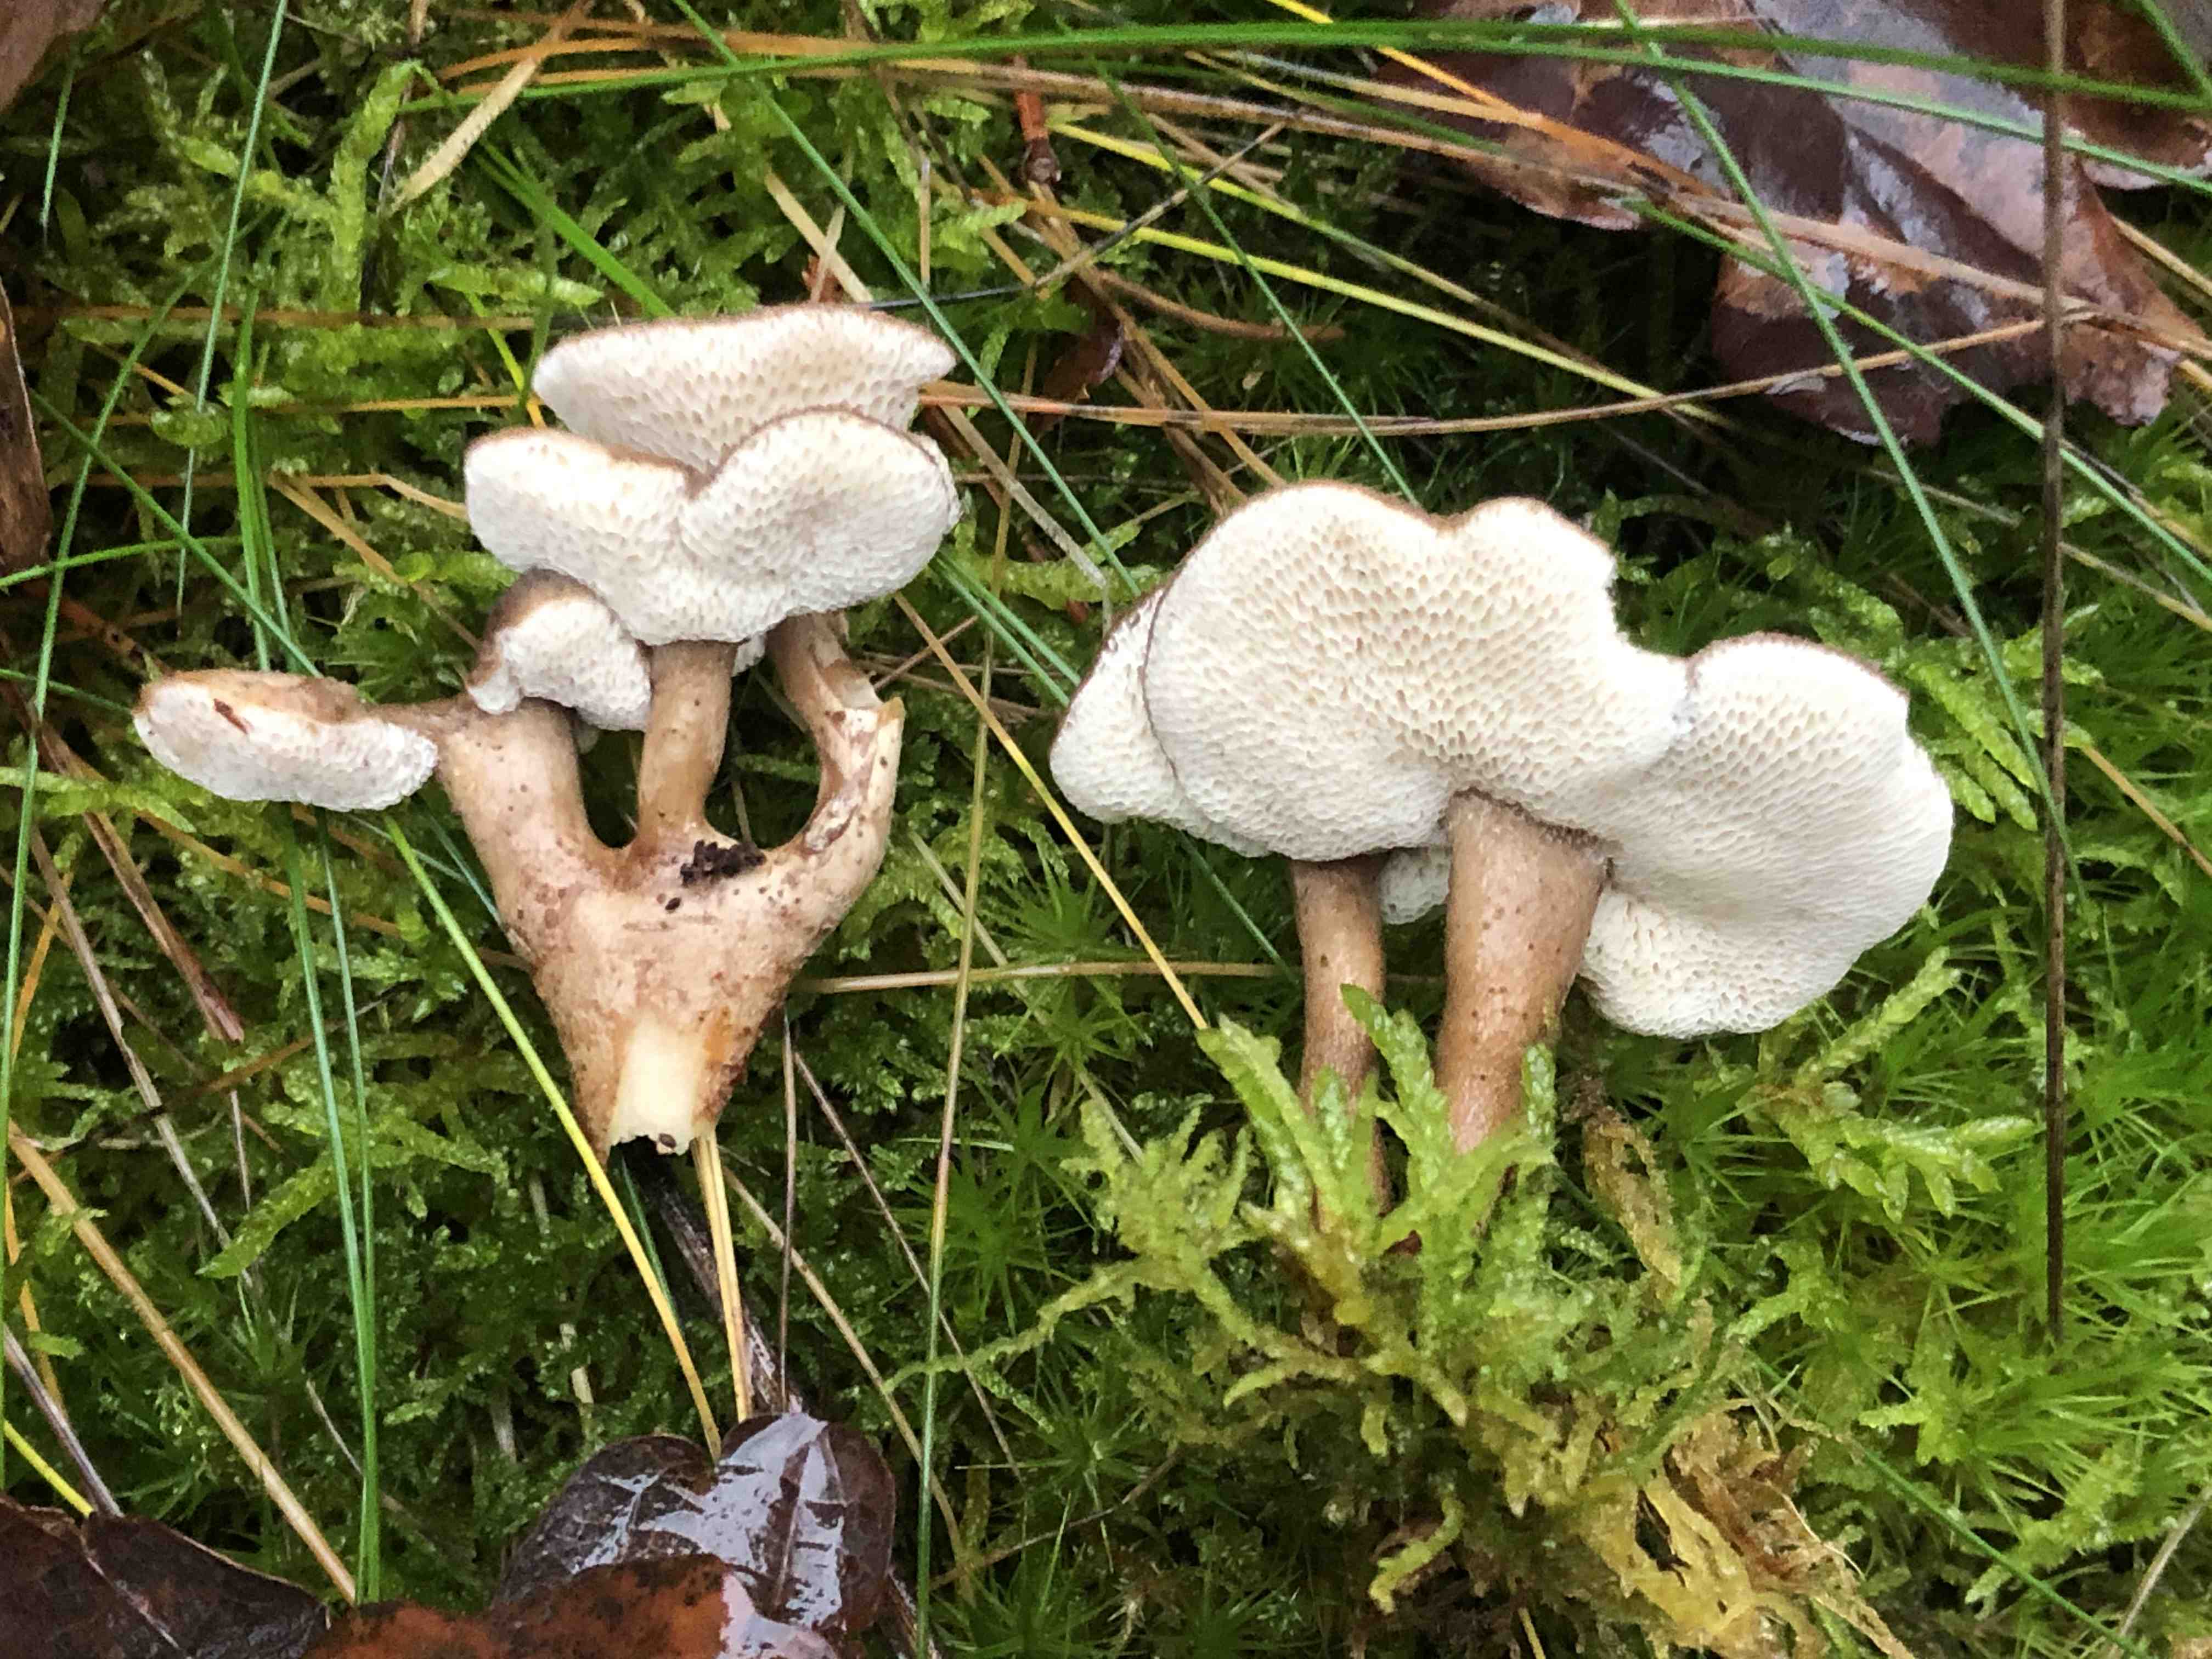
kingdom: Fungi
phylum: Basidiomycota
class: Agaricomycetes
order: Polyporales
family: Polyporaceae
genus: Lentinus
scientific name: Lentinus brumalis
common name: vinter-stilkporesvamp
